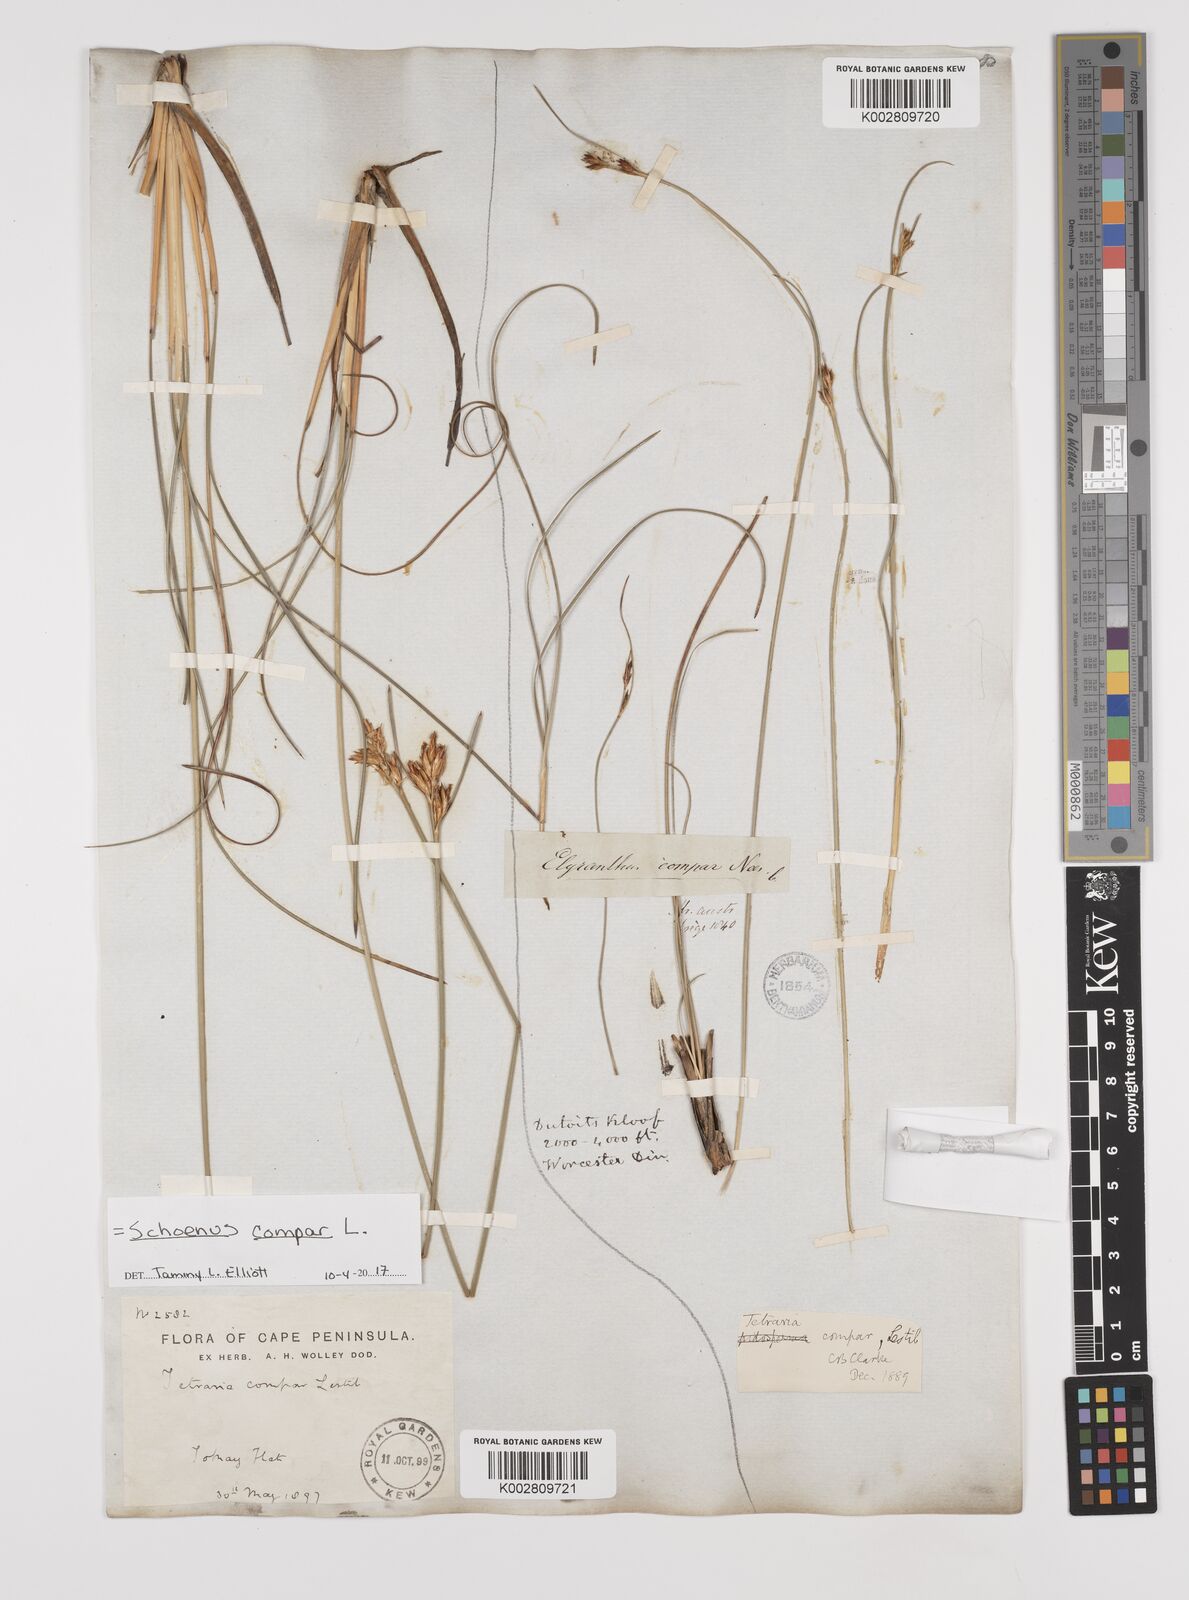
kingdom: Plantae
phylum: Tracheophyta
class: Liliopsida
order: Poales
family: Cyperaceae
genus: Schoenus
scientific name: Schoenus compar
